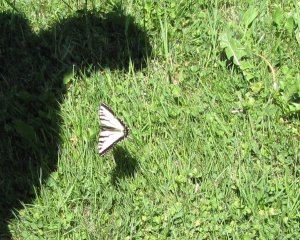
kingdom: Animalia
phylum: Arthropoda
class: Insecta
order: Lepidoptera
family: Papilionidae
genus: Pterourus
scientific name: Pterourus canadensis
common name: Canadian Tiger Swallowtail
